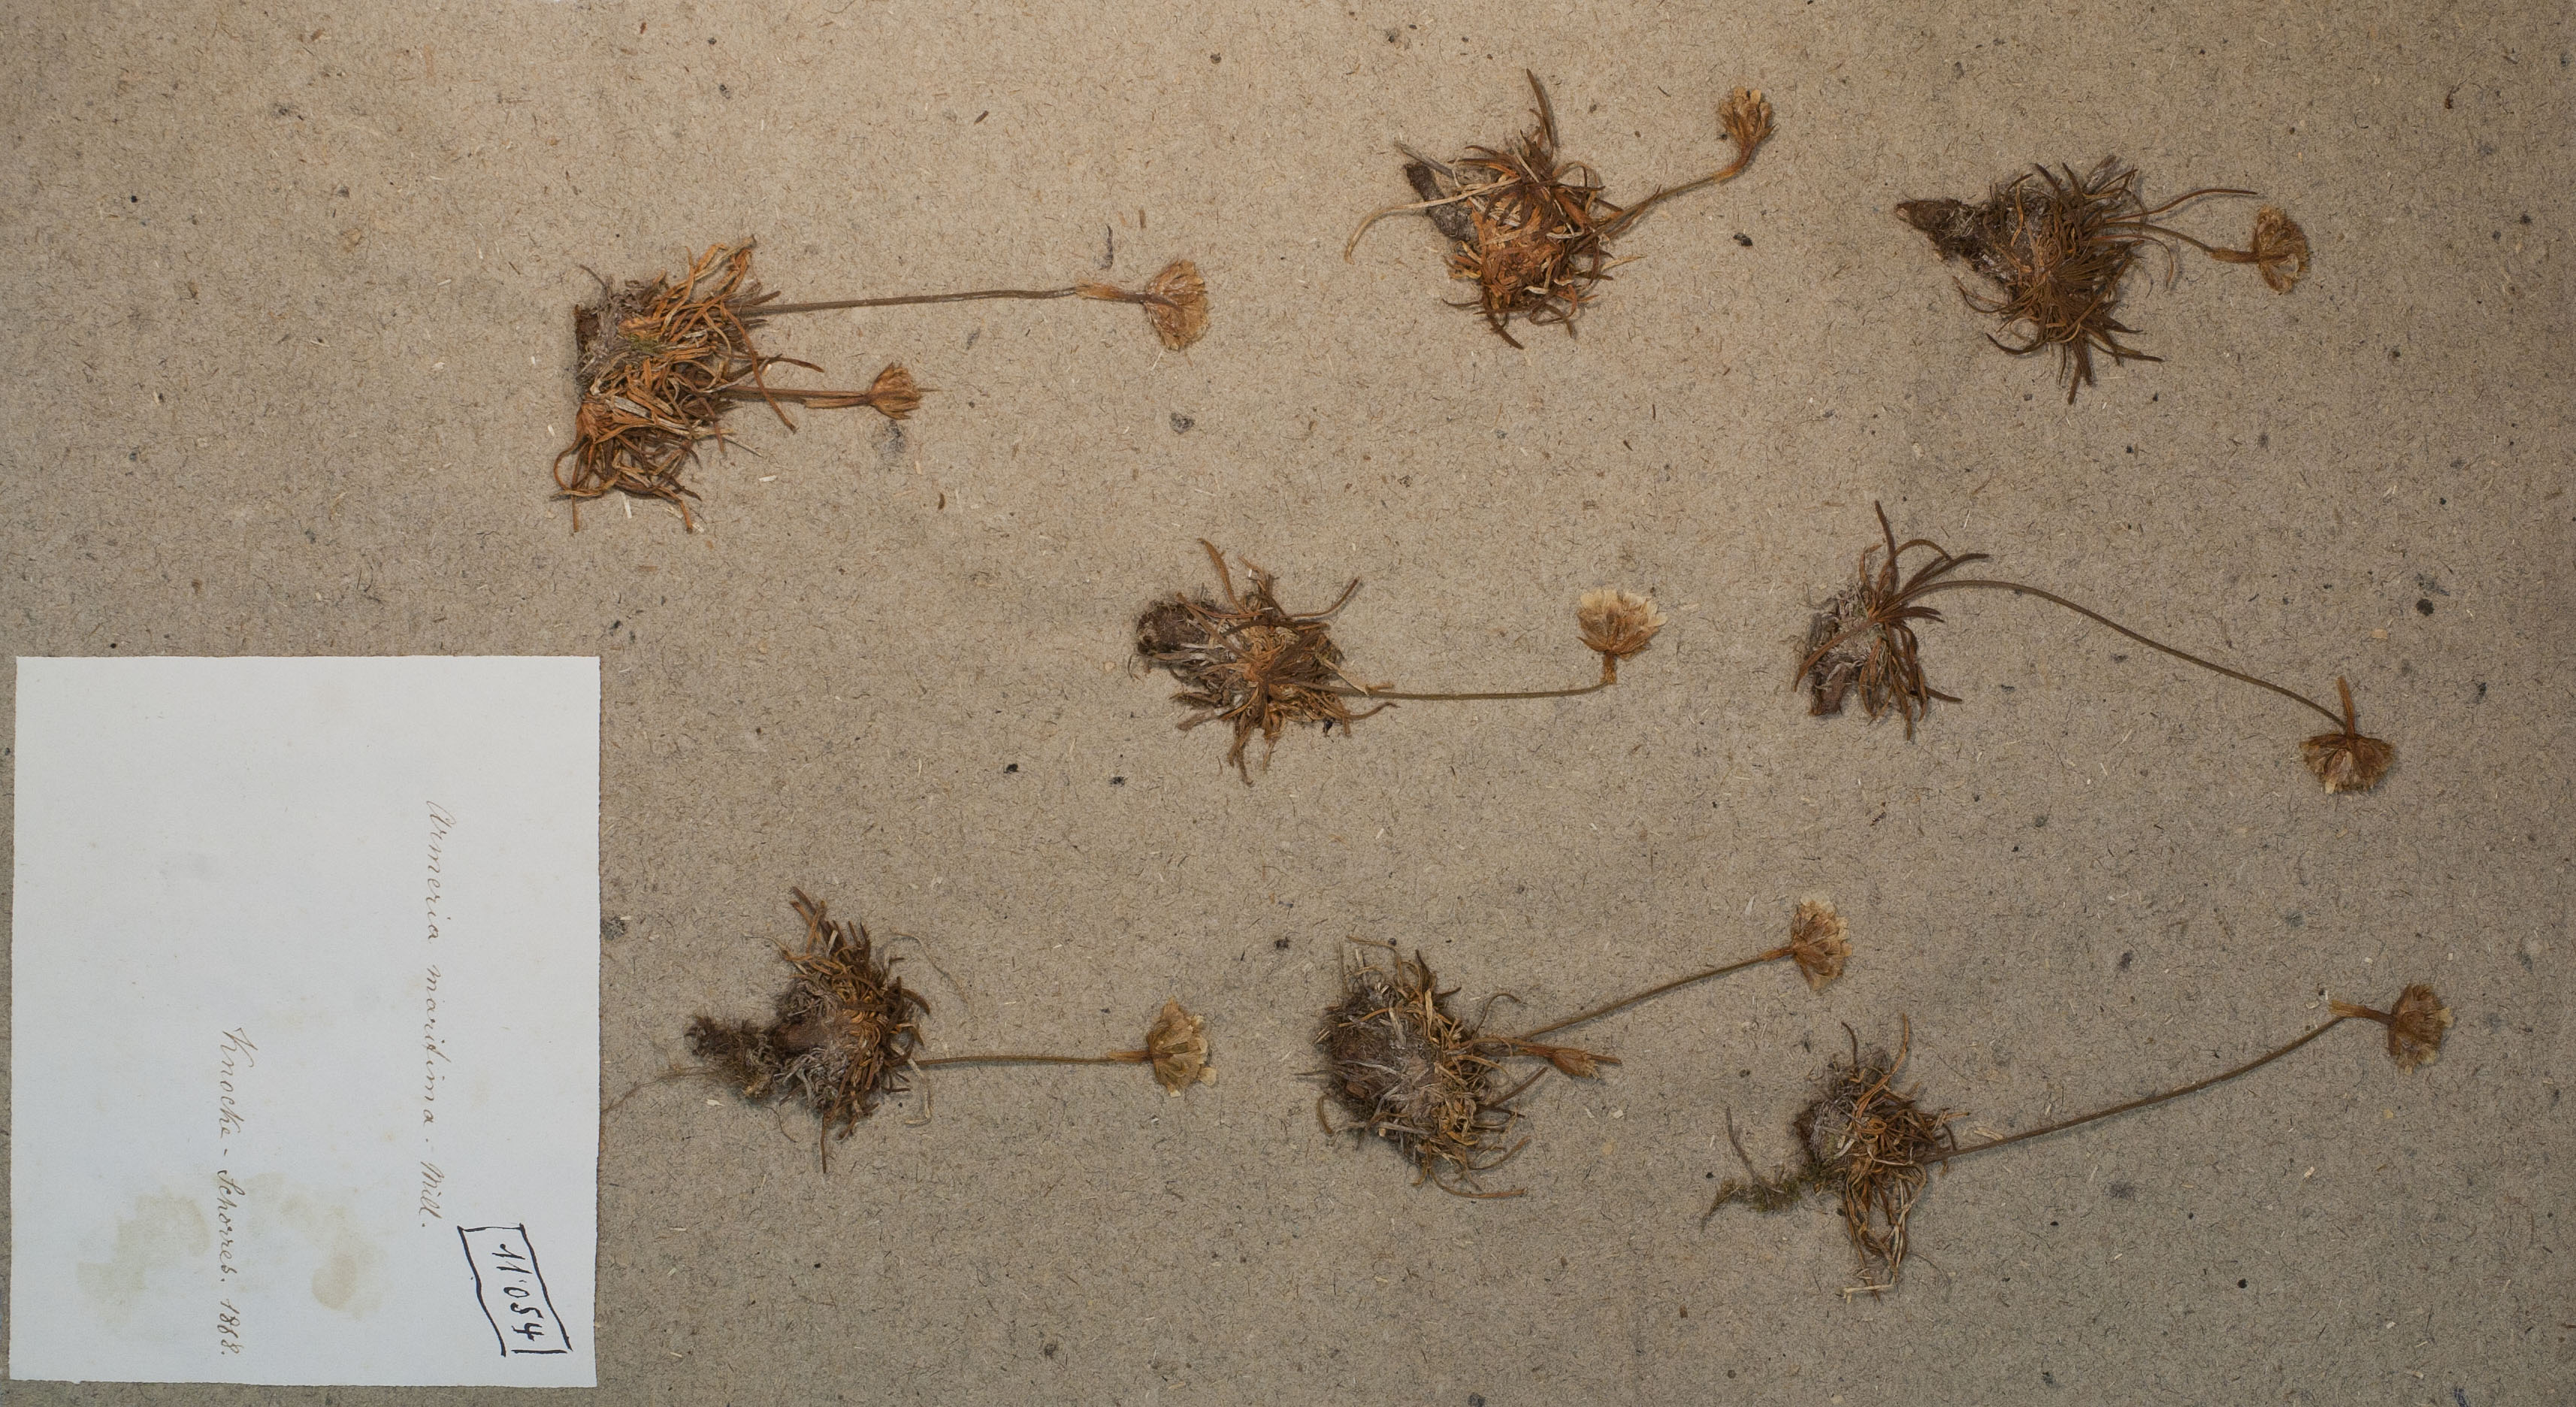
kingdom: Plantae
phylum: Tracheophyta
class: Magnoliopsida
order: Caryophyllales
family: Plumbaginaceae
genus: Armeria
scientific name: Armeria maritima
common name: Thrift
